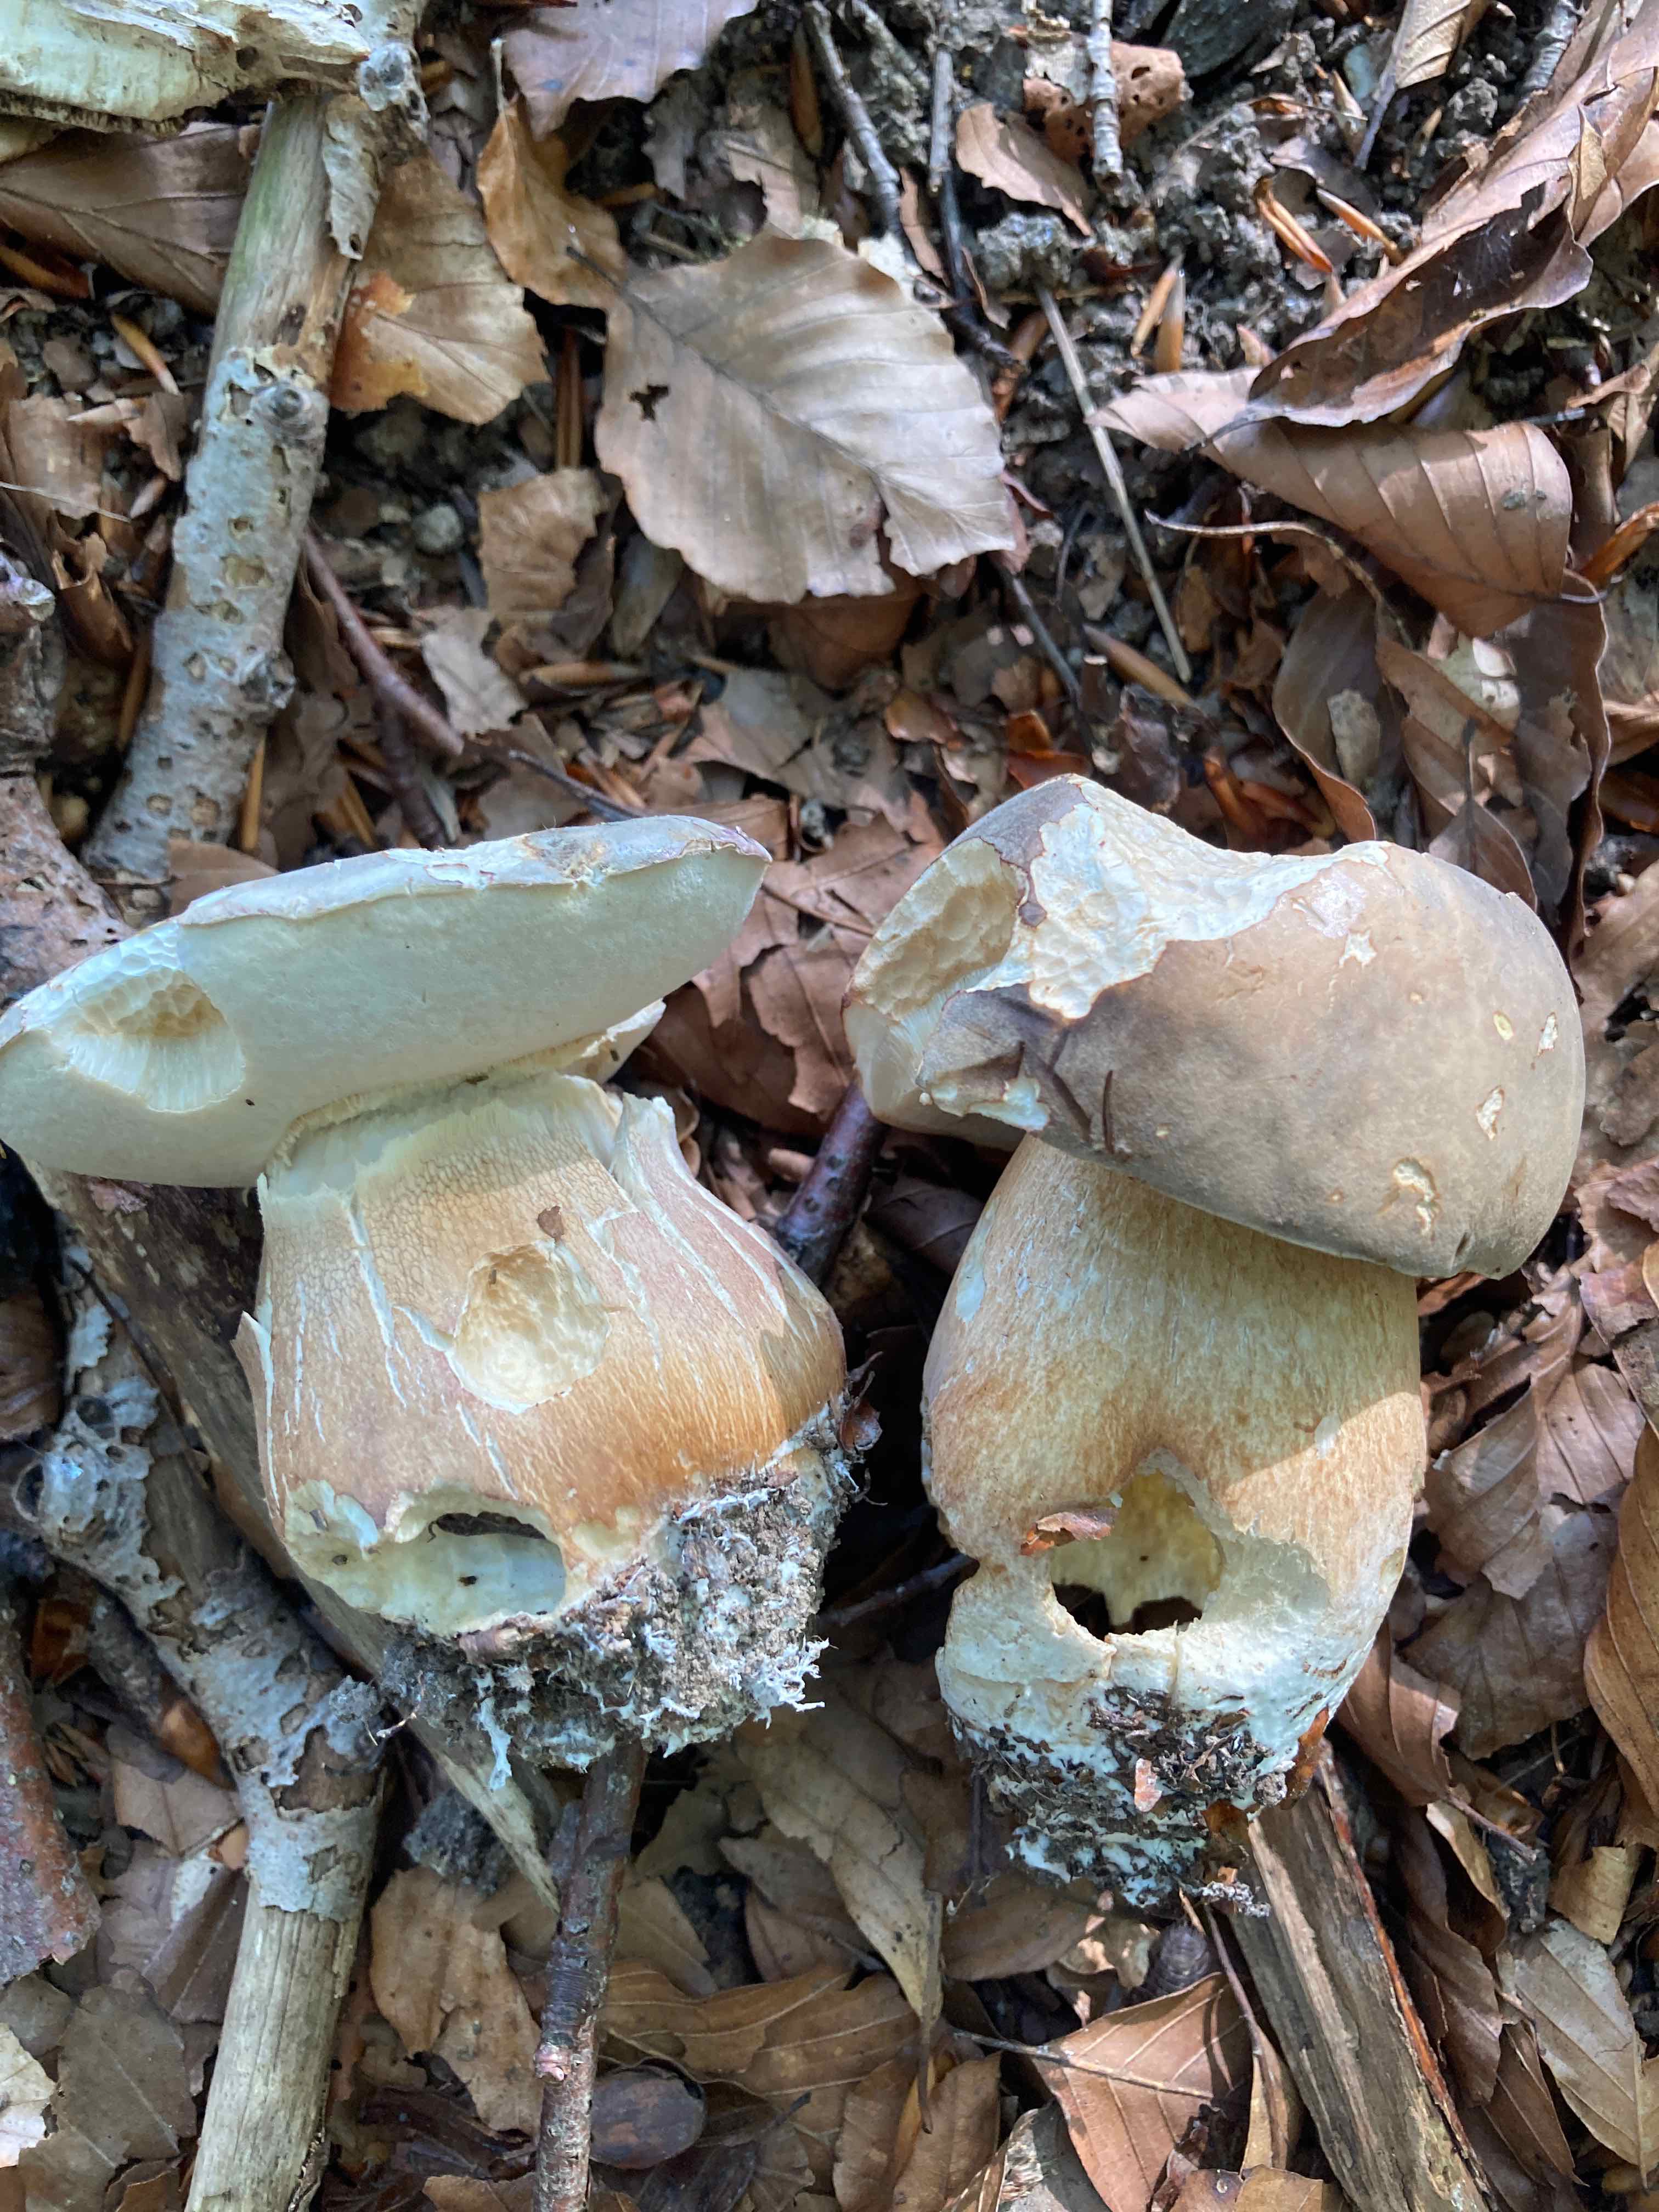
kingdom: Fungi
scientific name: Fungi
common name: bronze-rørhat
